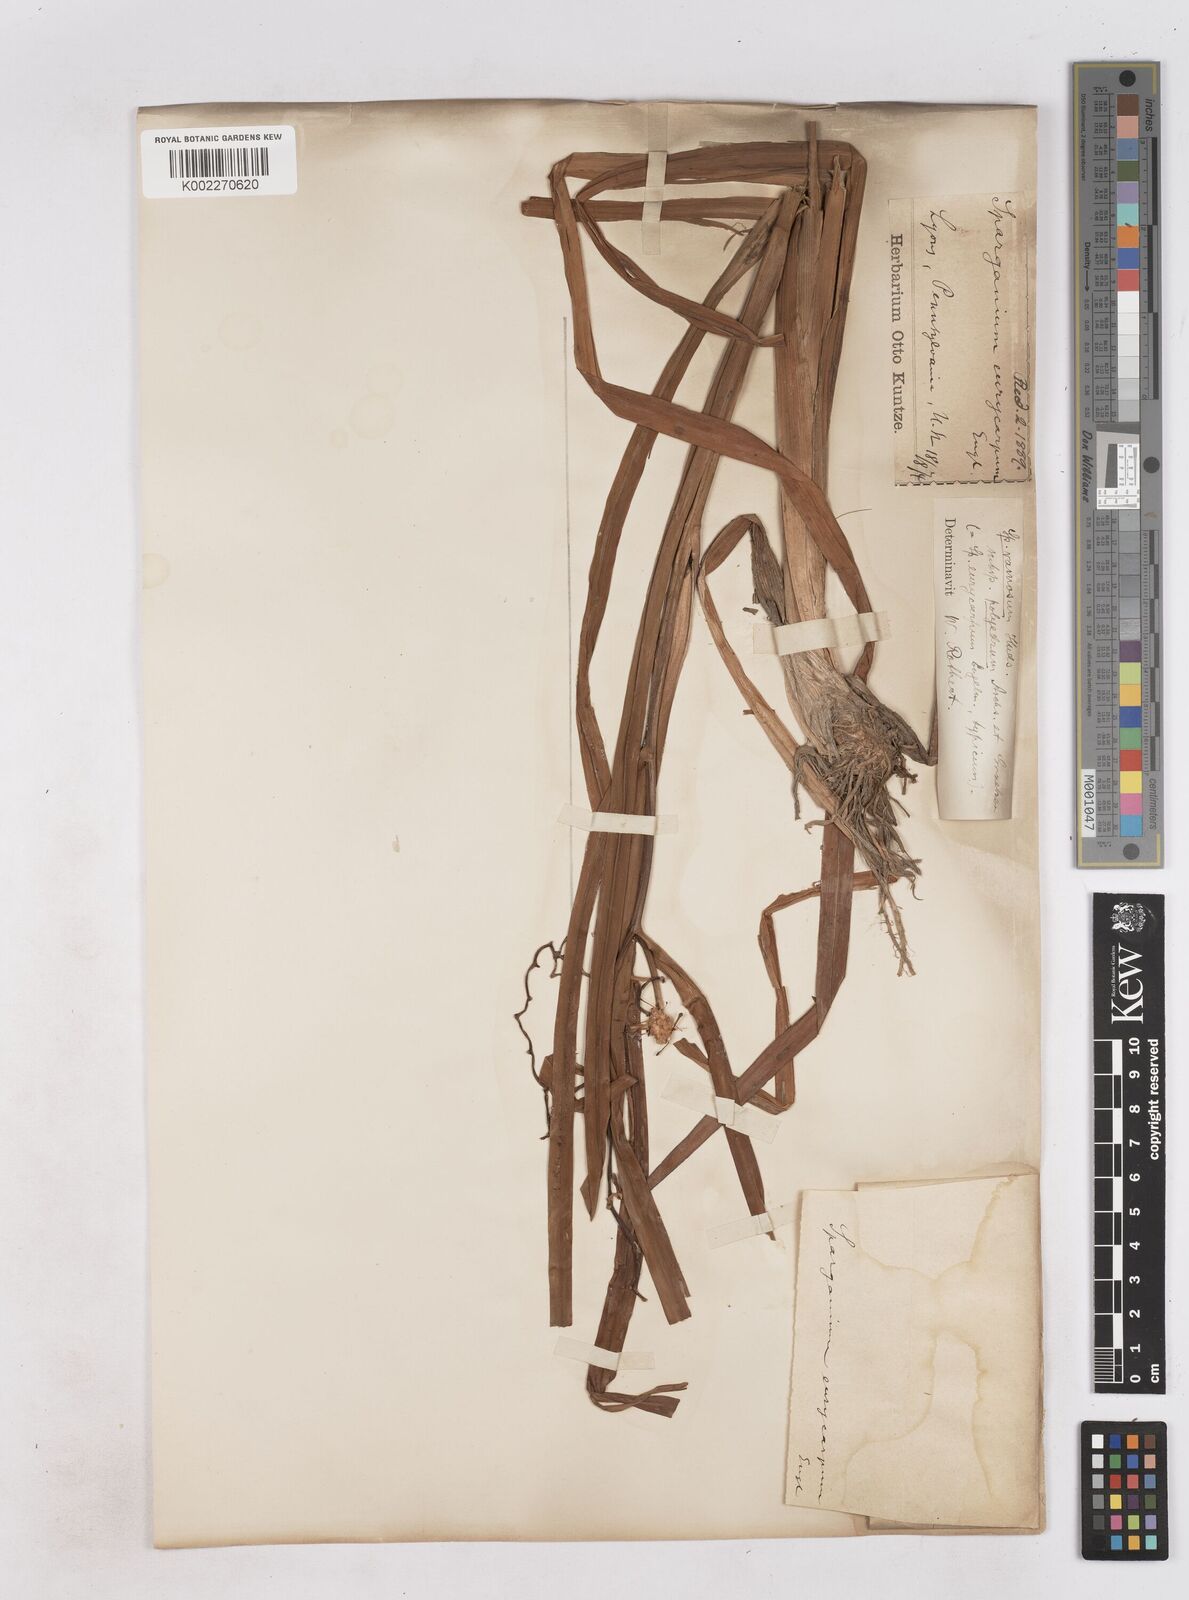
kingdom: Plantae
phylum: Tracheophyta
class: Liliopsida
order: Poales
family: Typhaceae
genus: Sparganium
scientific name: Sparganium eurycarpum
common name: Broad-fruited burreed
